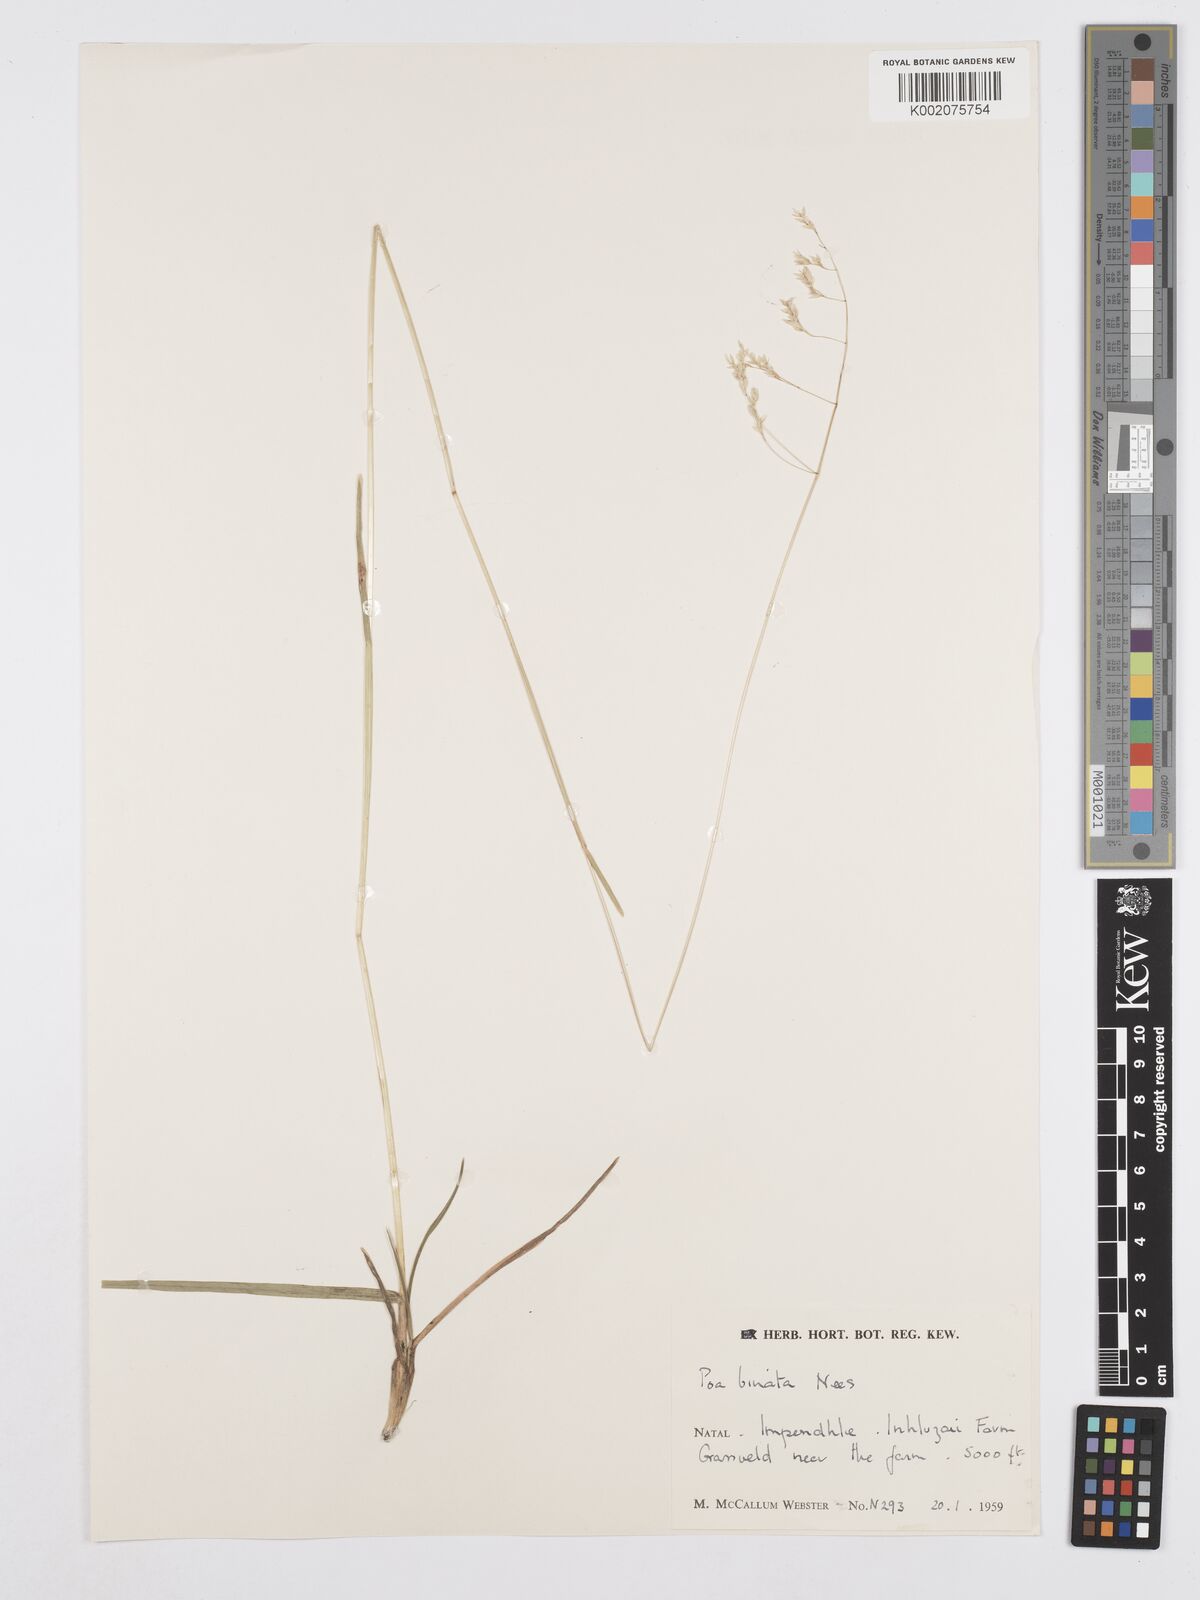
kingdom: Plantae
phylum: Tracheophyta
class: Liliopsida
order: Poales
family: Poaceae
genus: Poa
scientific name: Poa binata
